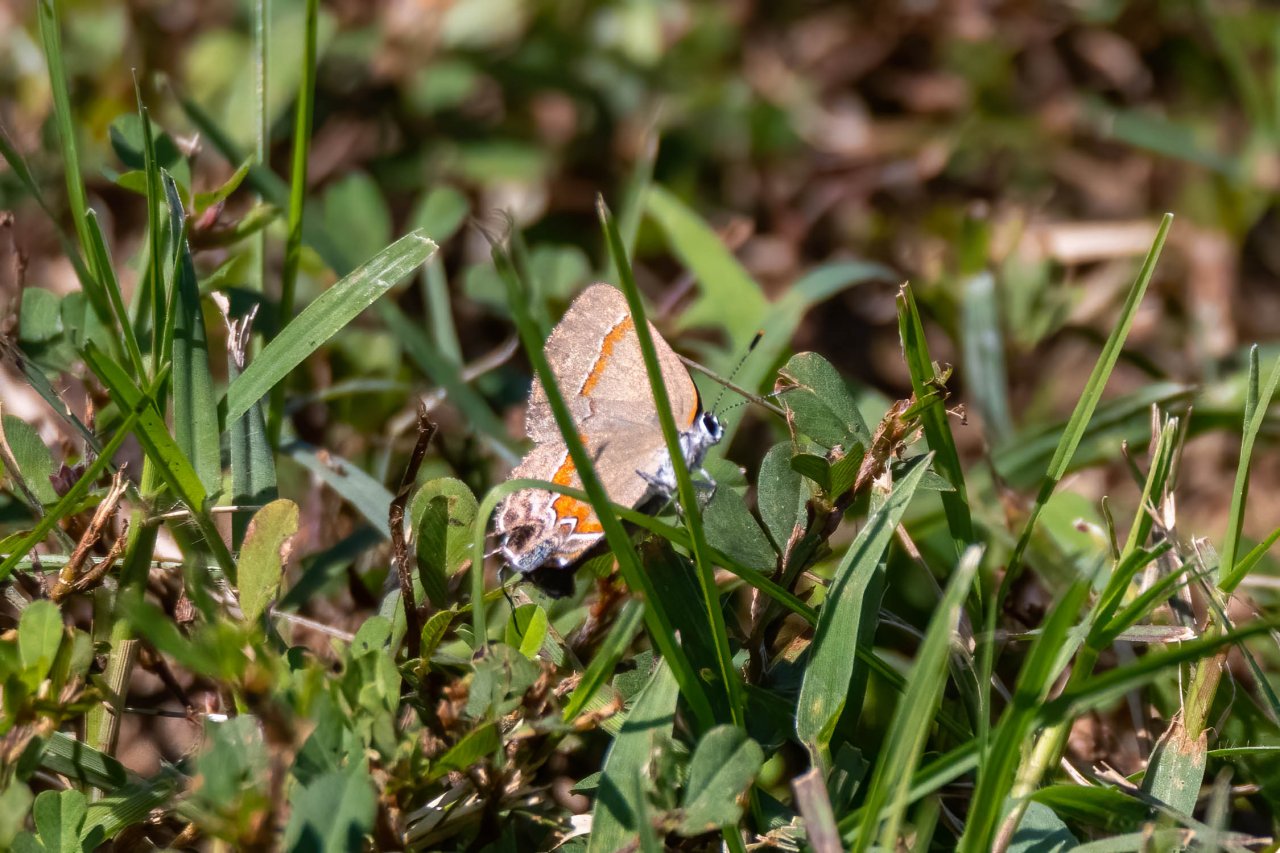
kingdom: Animalia
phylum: Arthropoda
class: Insecta
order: Lepidoptera
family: Lycaenidae
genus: Calycopis
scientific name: Calycopis cecrops
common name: Red-banded Hairstreak
